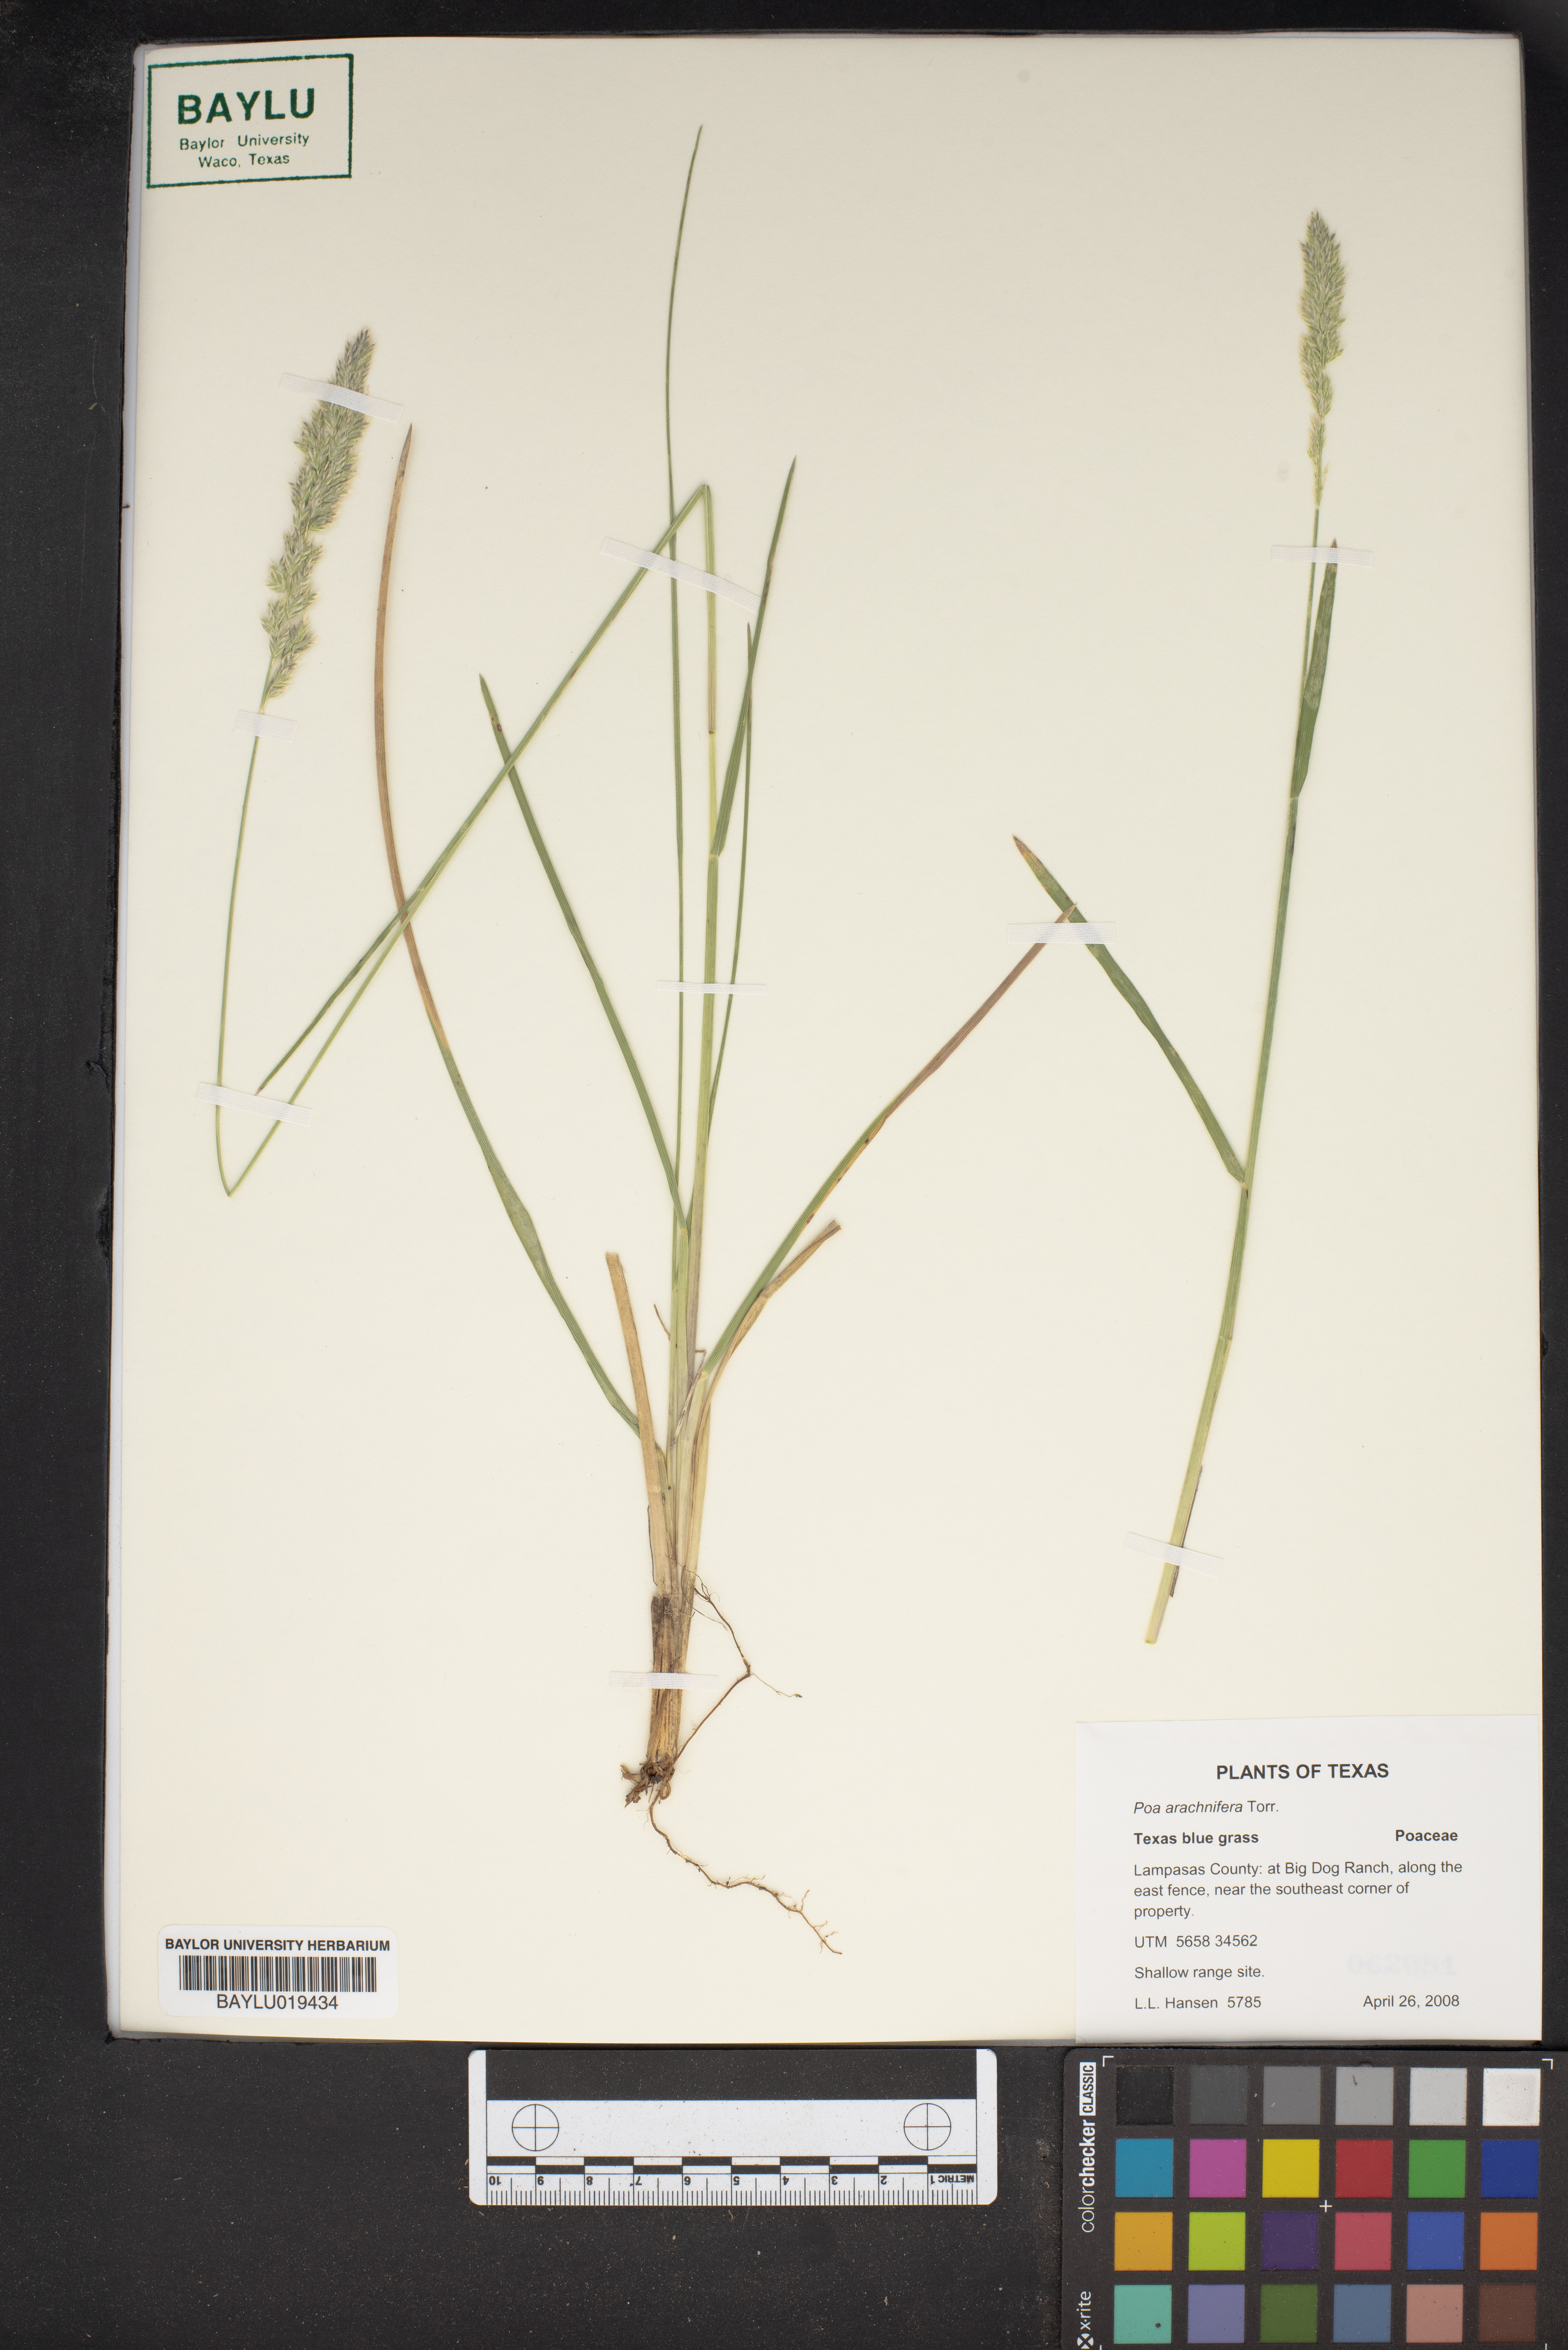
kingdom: Plantae
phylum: Tracheophyta
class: Liliopsida
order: Poales
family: Poaceae
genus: Poa
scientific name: Poa arachnifera
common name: Texas bluegrass
